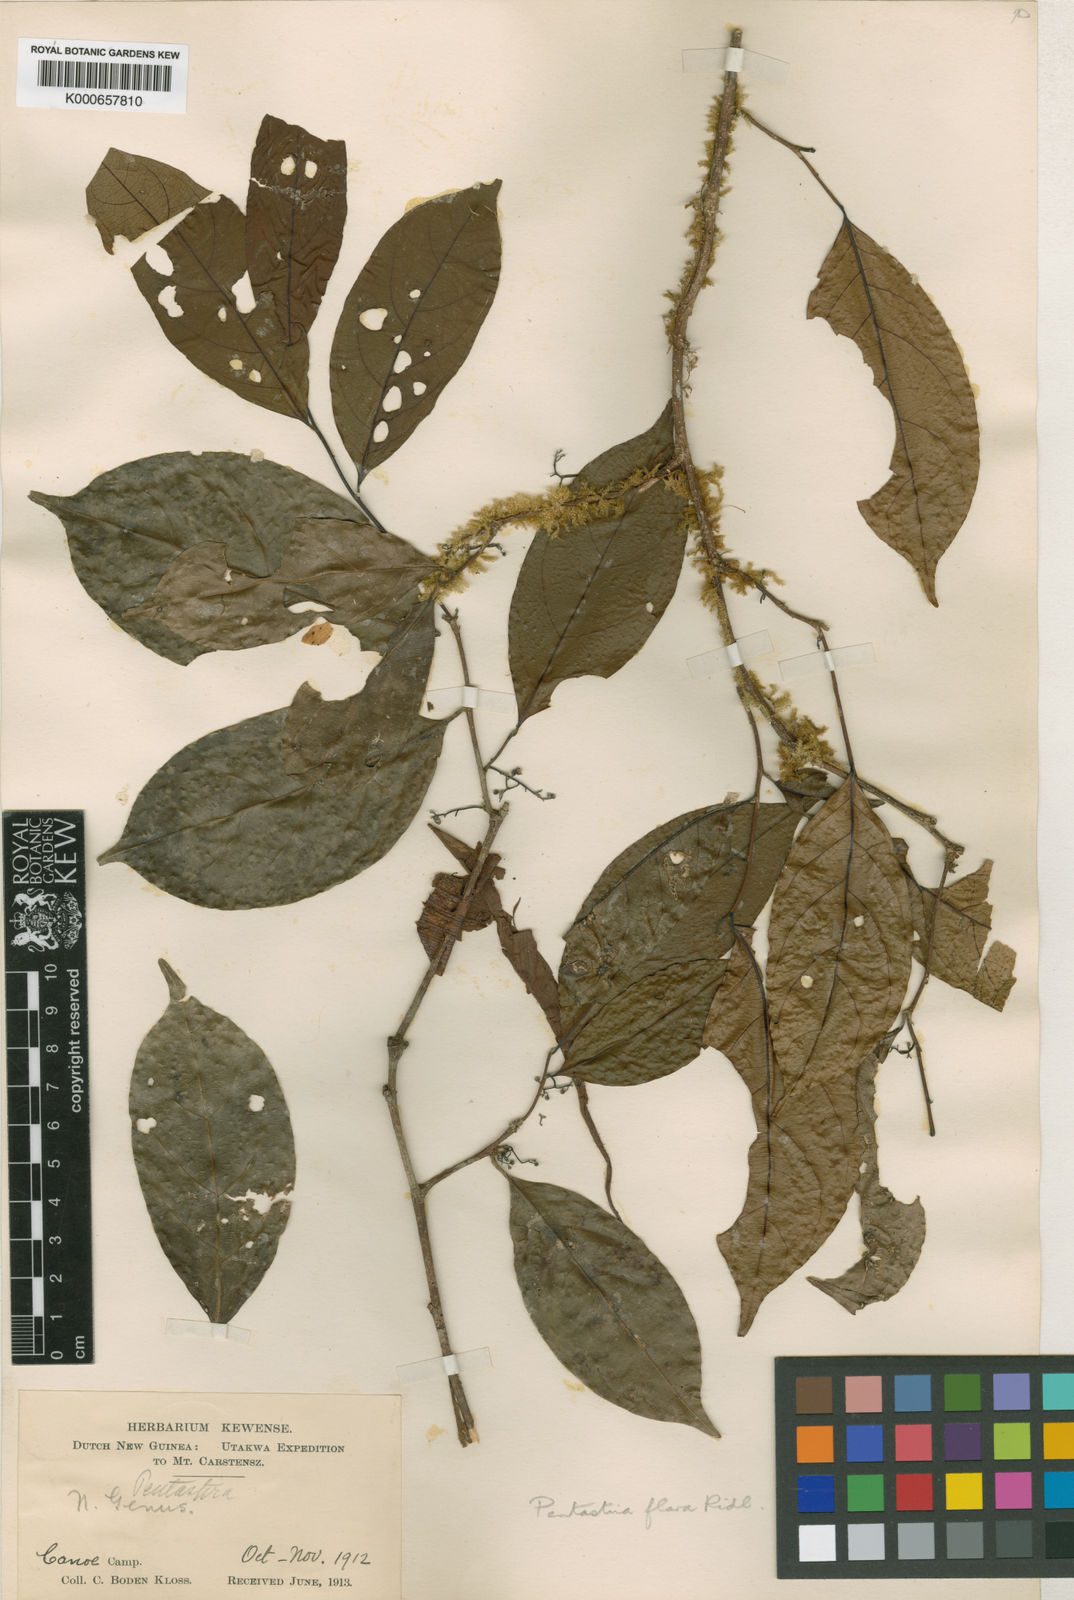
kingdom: Plantae
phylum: Tracheophyta
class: Magnoliopsida
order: Malpighiales
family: Dichapetalaceae
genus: Dichapetalum
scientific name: Dichapetalum papuanum
